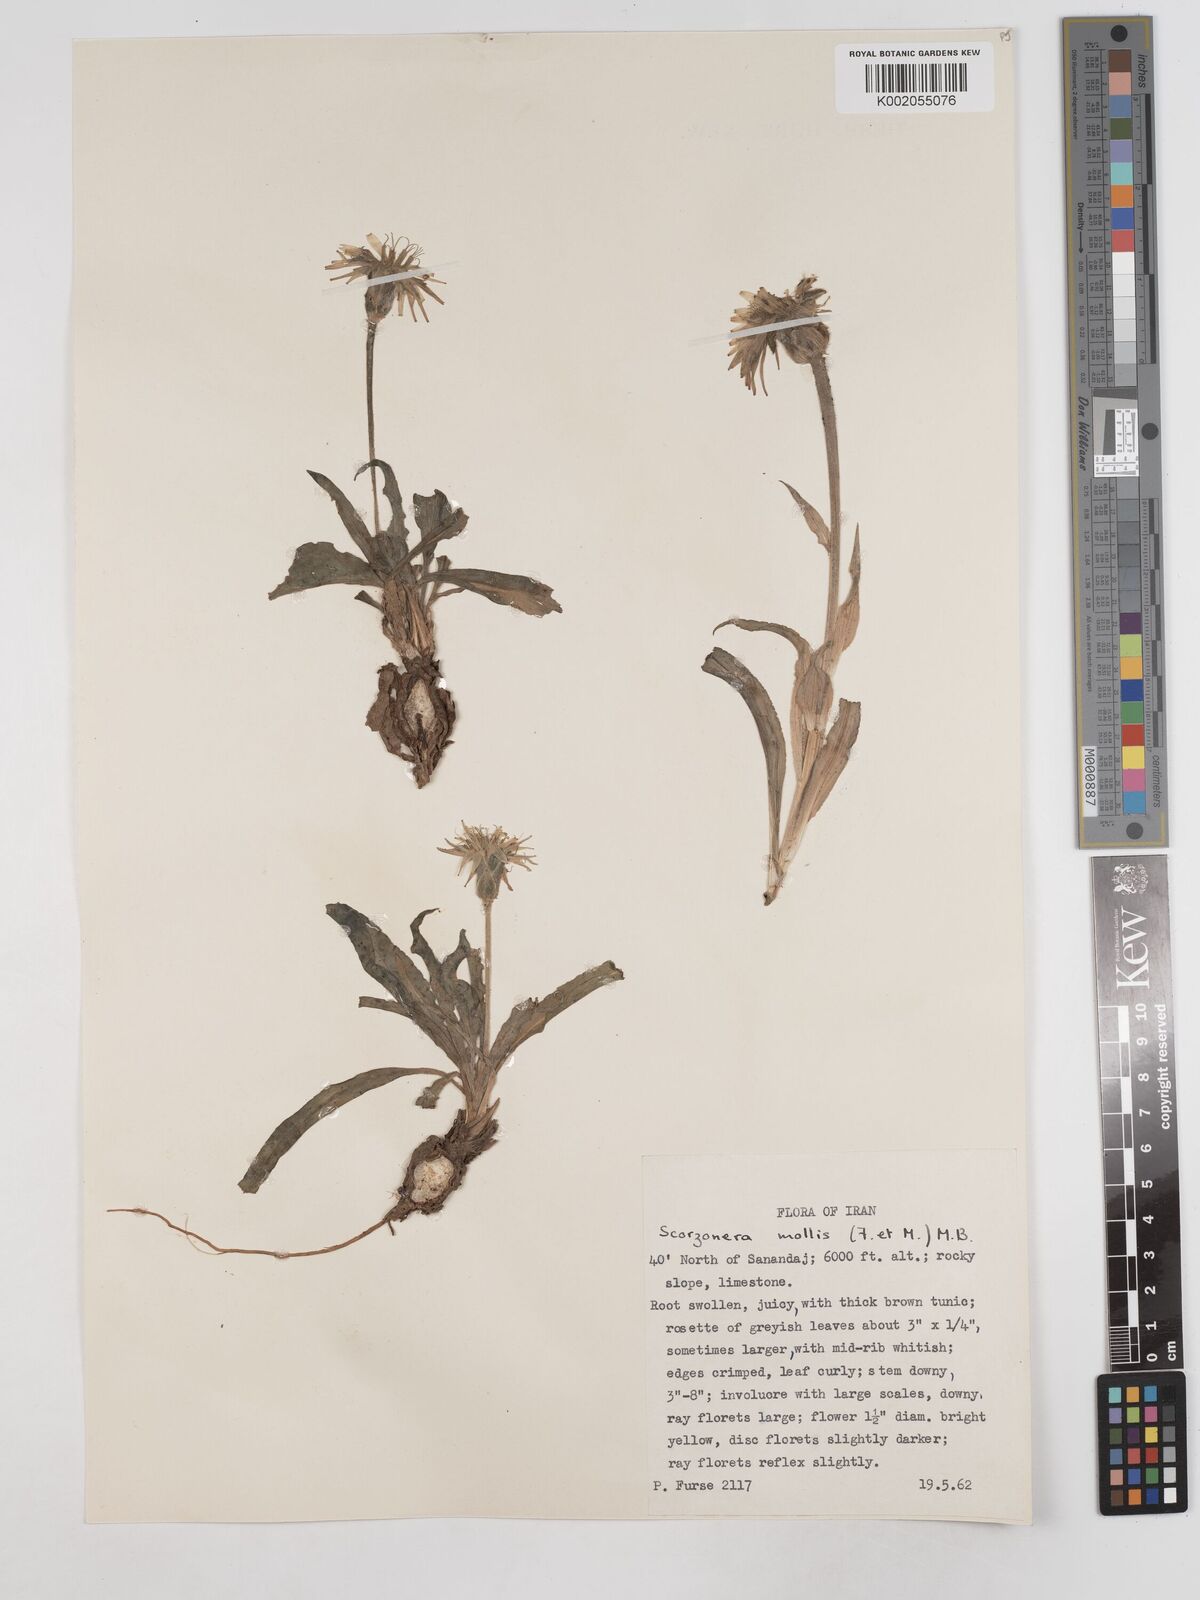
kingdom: Plantae
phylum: Tracheophyta
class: Magnoliopsida
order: Asterales
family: Asteraceae
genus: Candollea
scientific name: Candollea mollis
